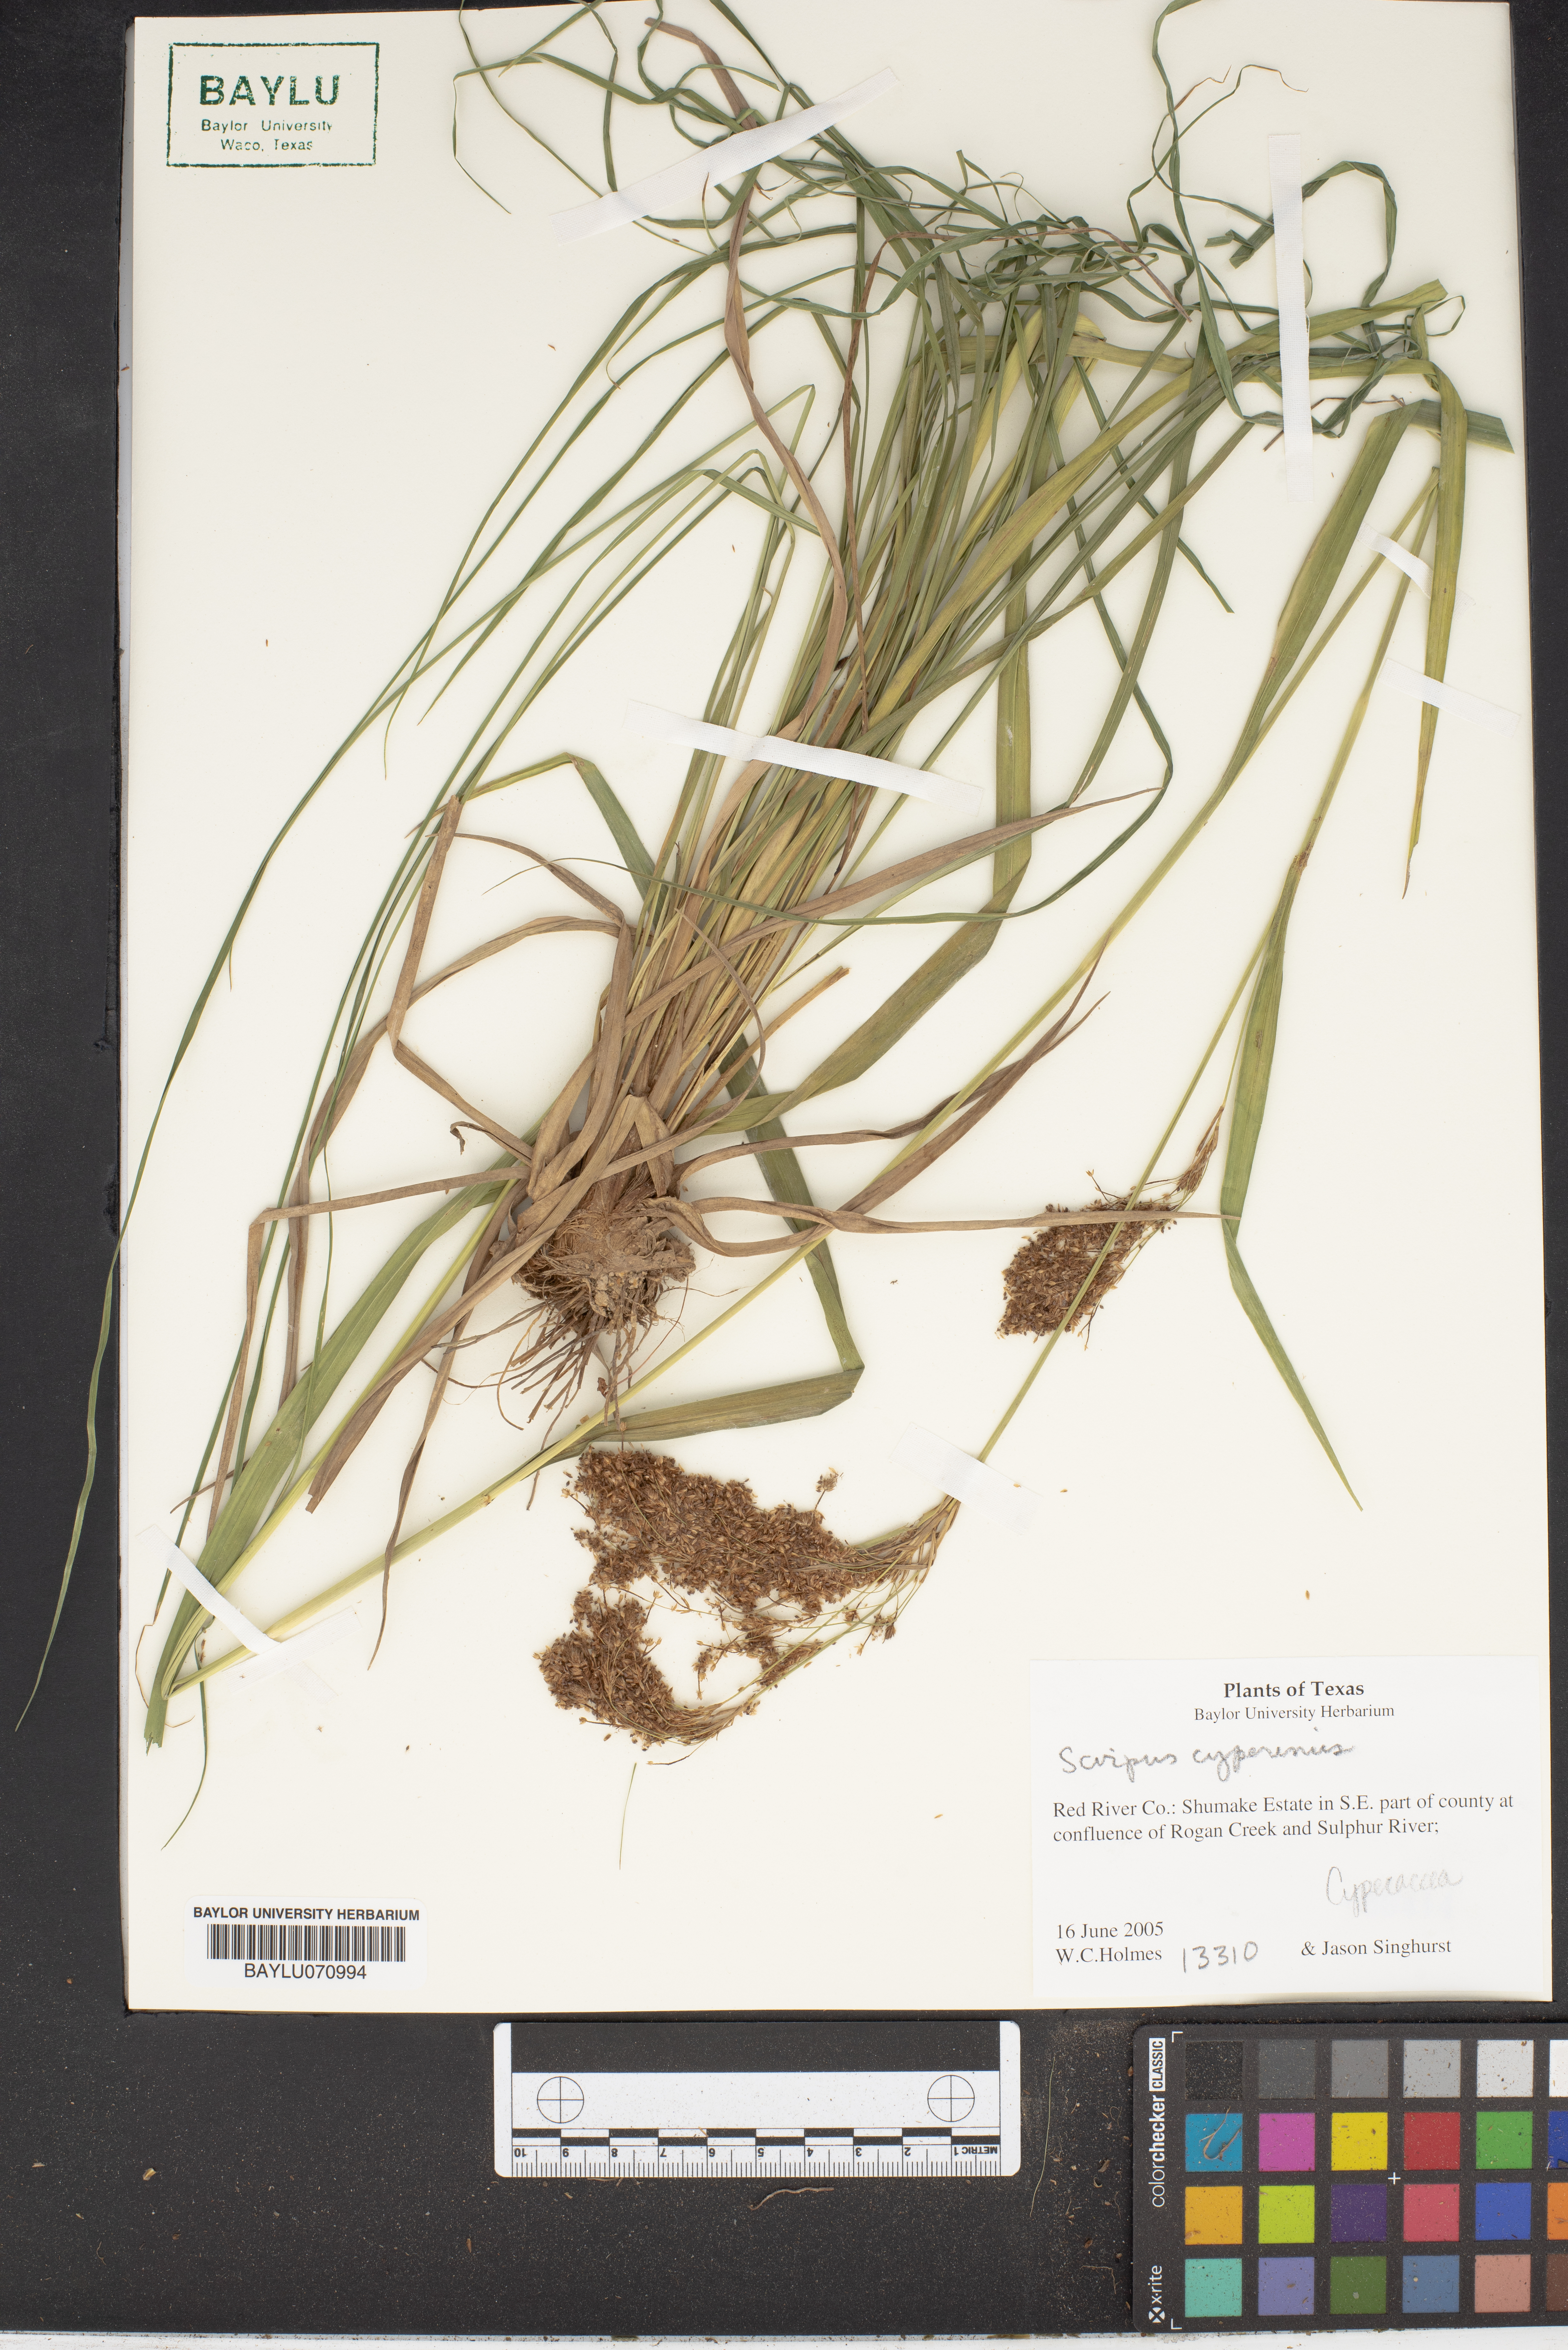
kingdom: Plantae
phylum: Tracheophyta
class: Liliopsida
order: Poales
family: Cyperaceae
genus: Scirpus
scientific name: Scirpus cyperinus
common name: Black-sheathed bulrush
